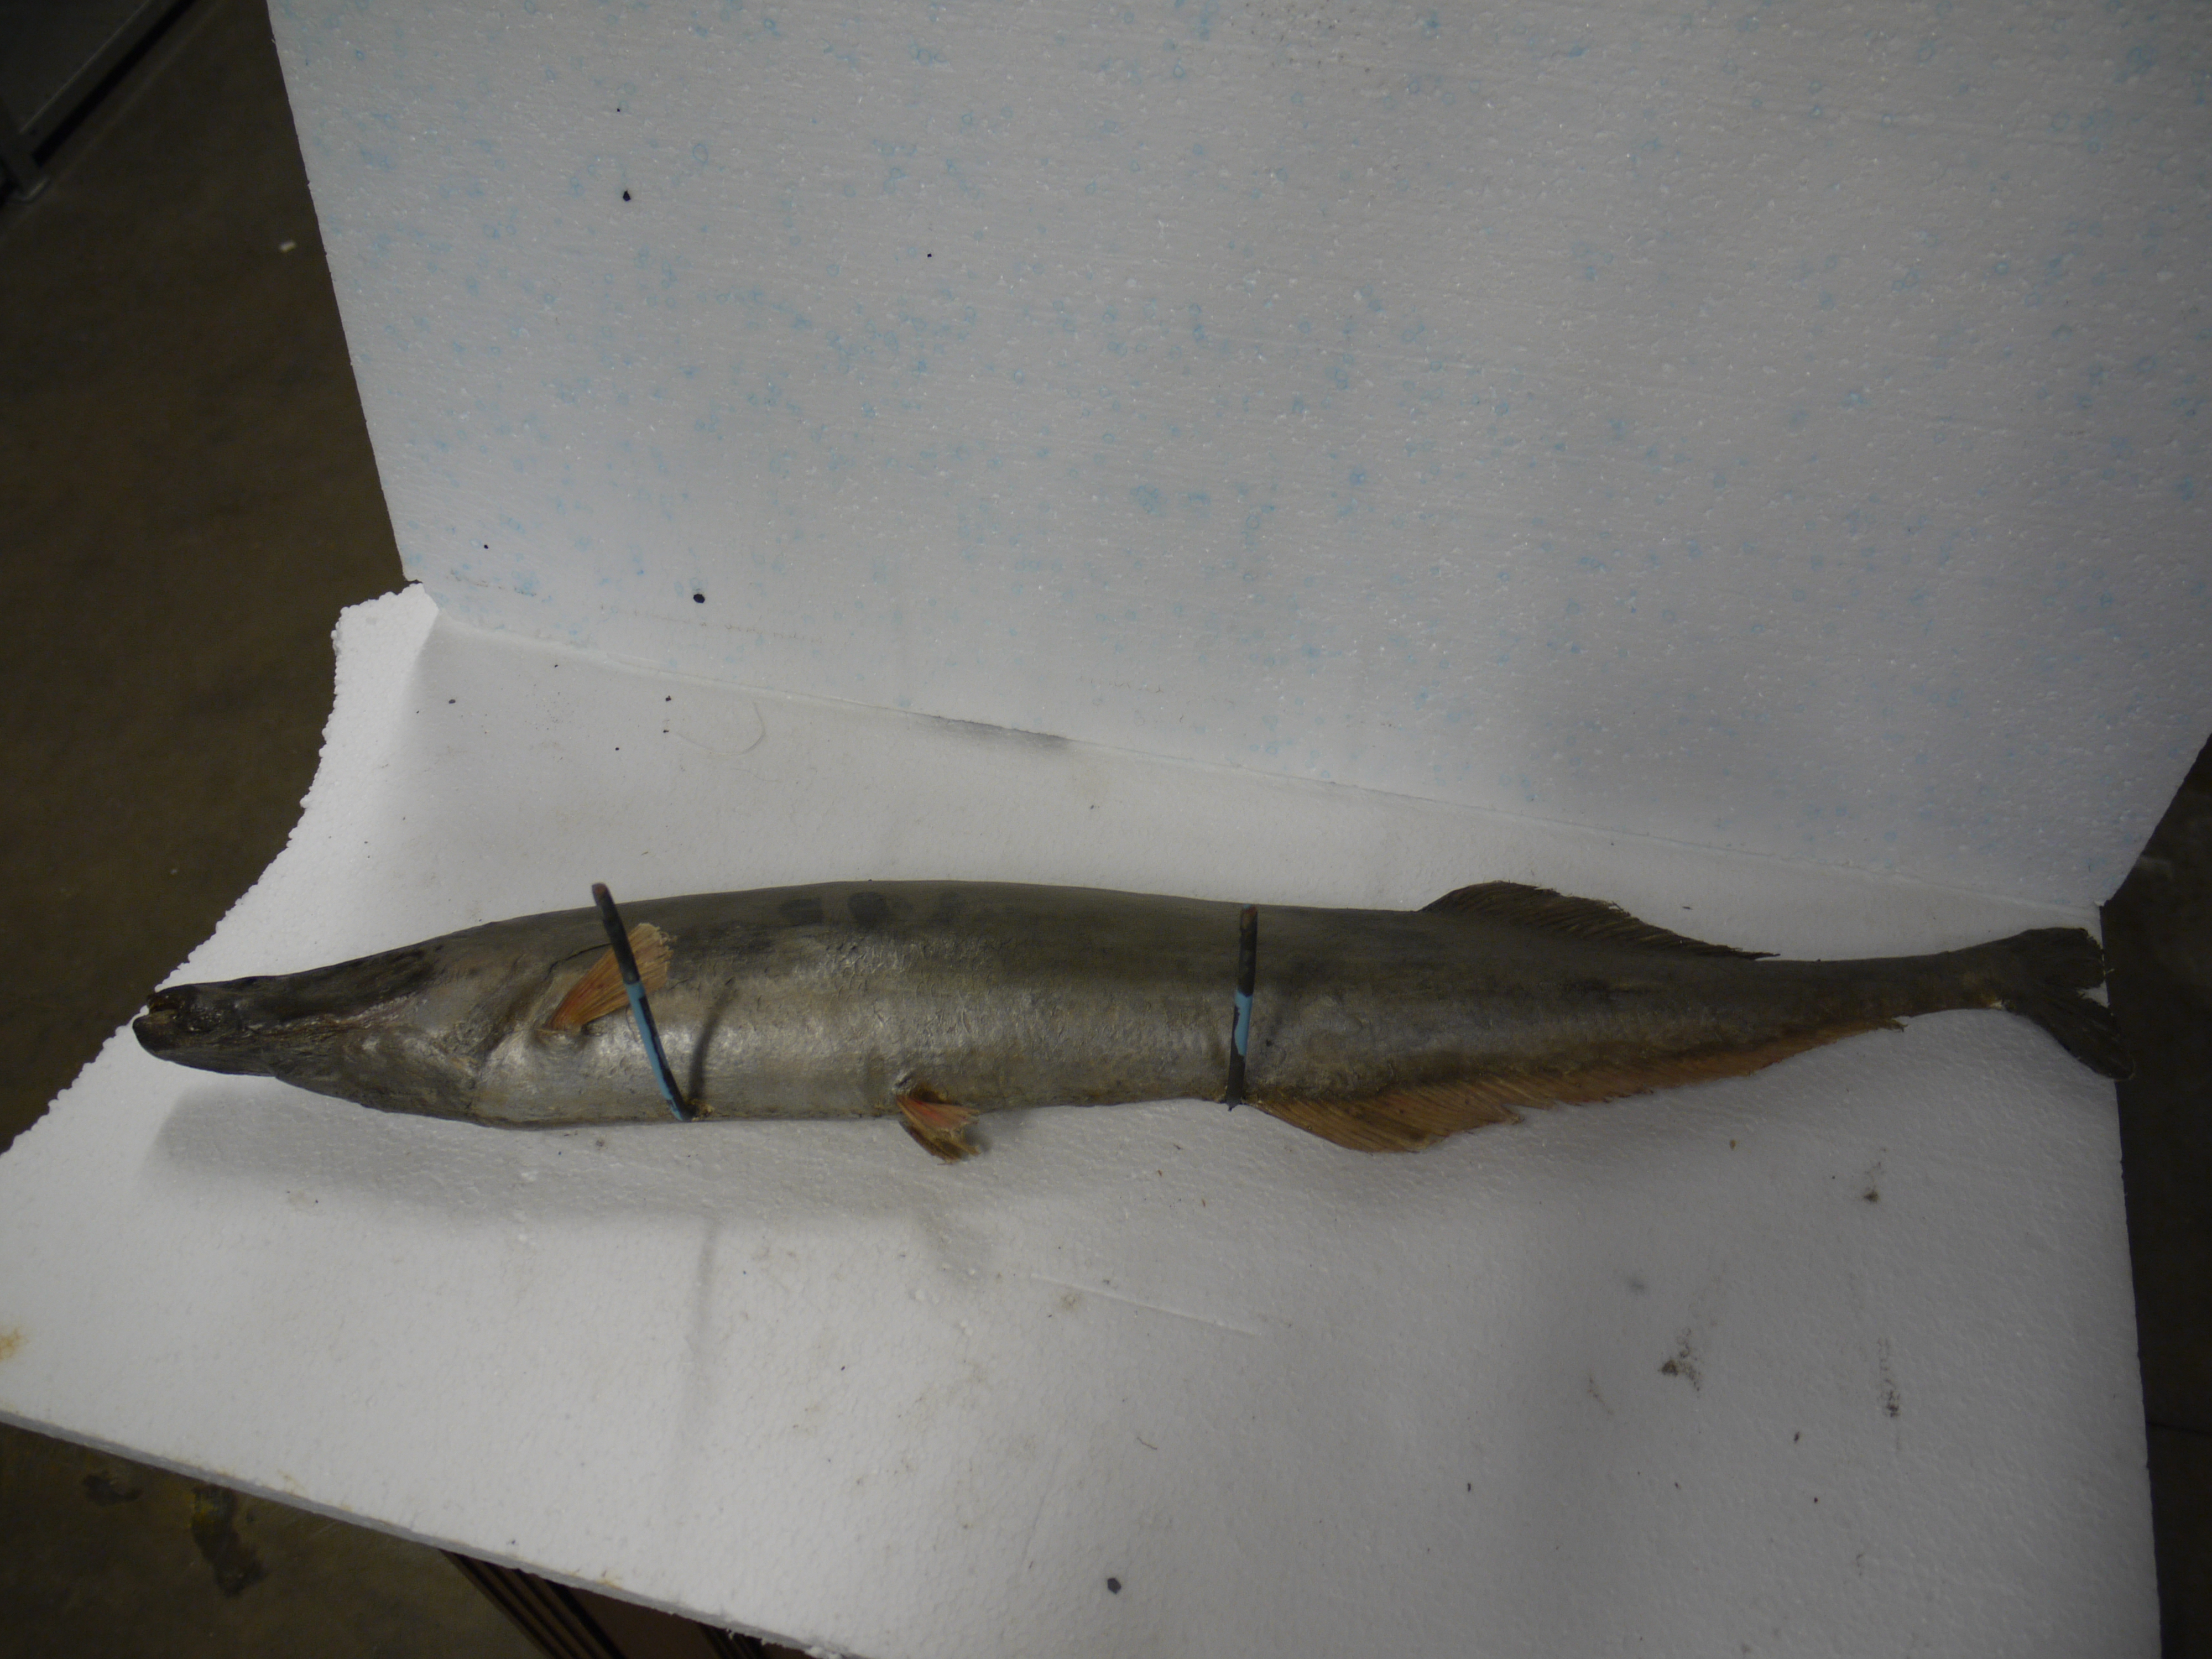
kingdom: Animalia
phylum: Chordata
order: Osteoglossiformes
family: Mormyridae
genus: Mormyrops
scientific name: Mormyrops anguilloides
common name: Cornish jack
